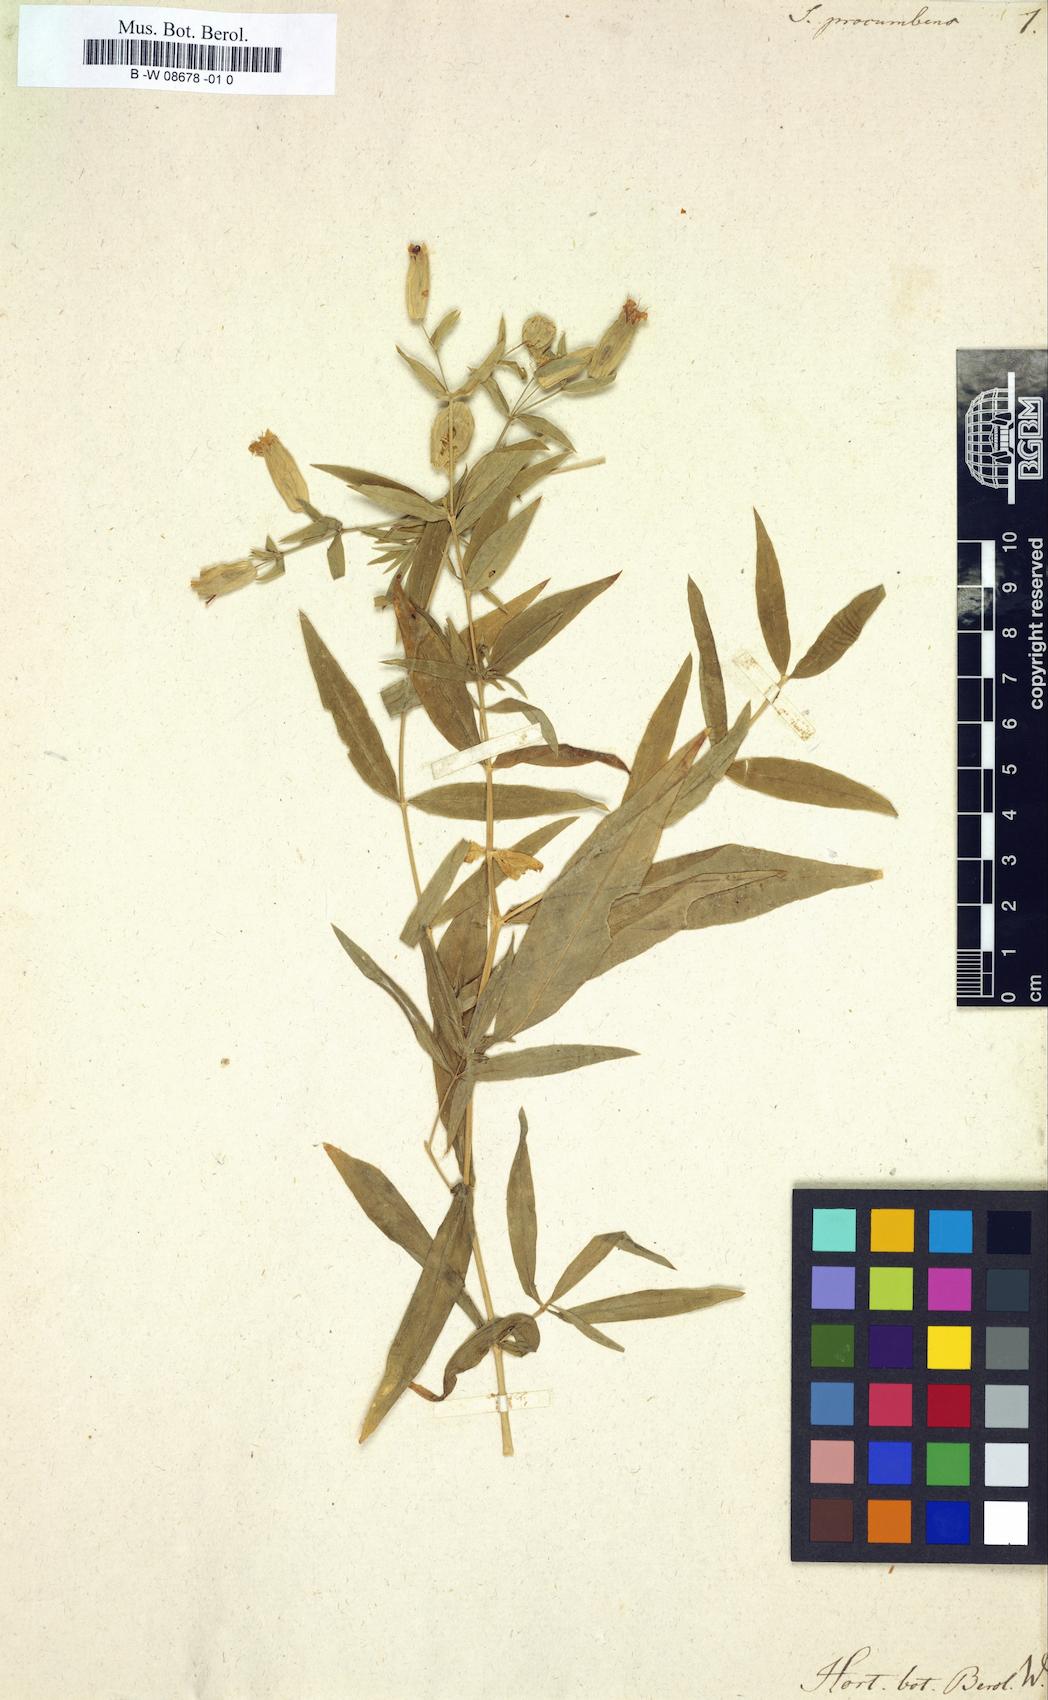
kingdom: Plantae
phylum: Tracheophyta
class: Magnoliopsida
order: Caryophyllales
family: Caryophyllaceae
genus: Silene
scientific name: Silene procumbens
